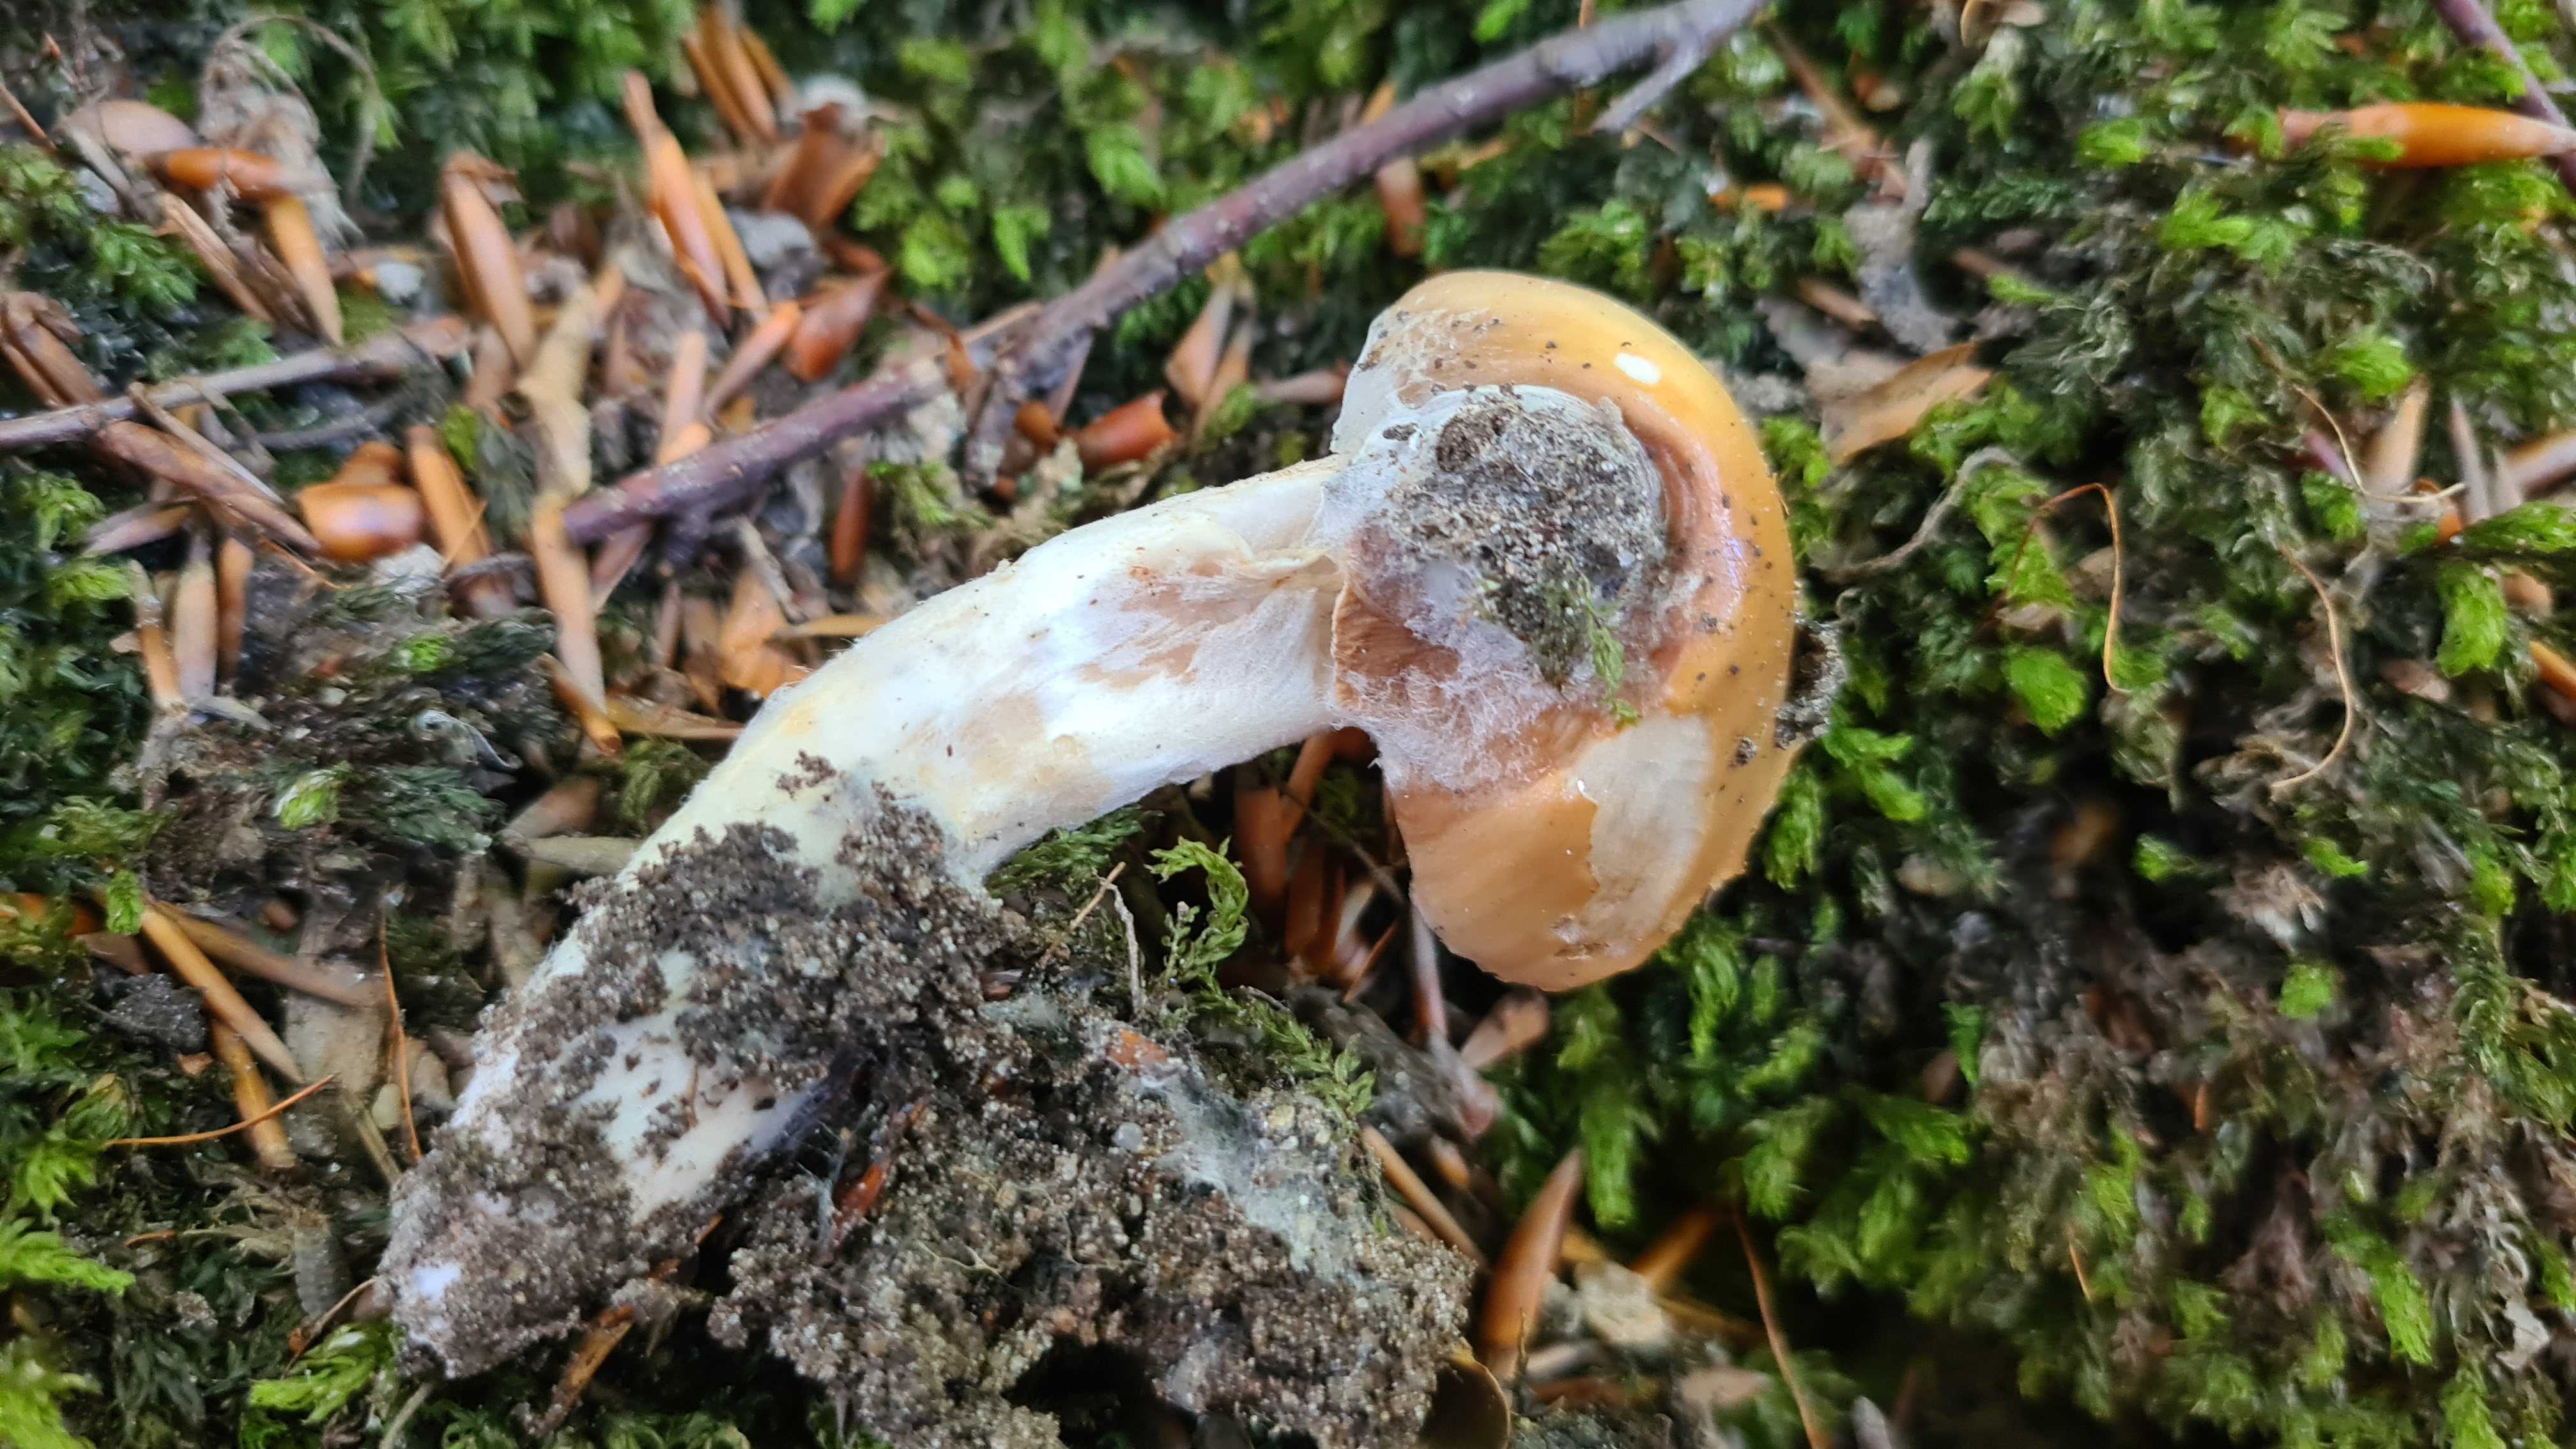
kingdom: Fungi
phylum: Basidiomycota
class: Agaricomycetes
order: Agaricales
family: Cortinariaceae
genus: Cortinarius
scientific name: Cortinarius elatior
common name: høj slørhat
